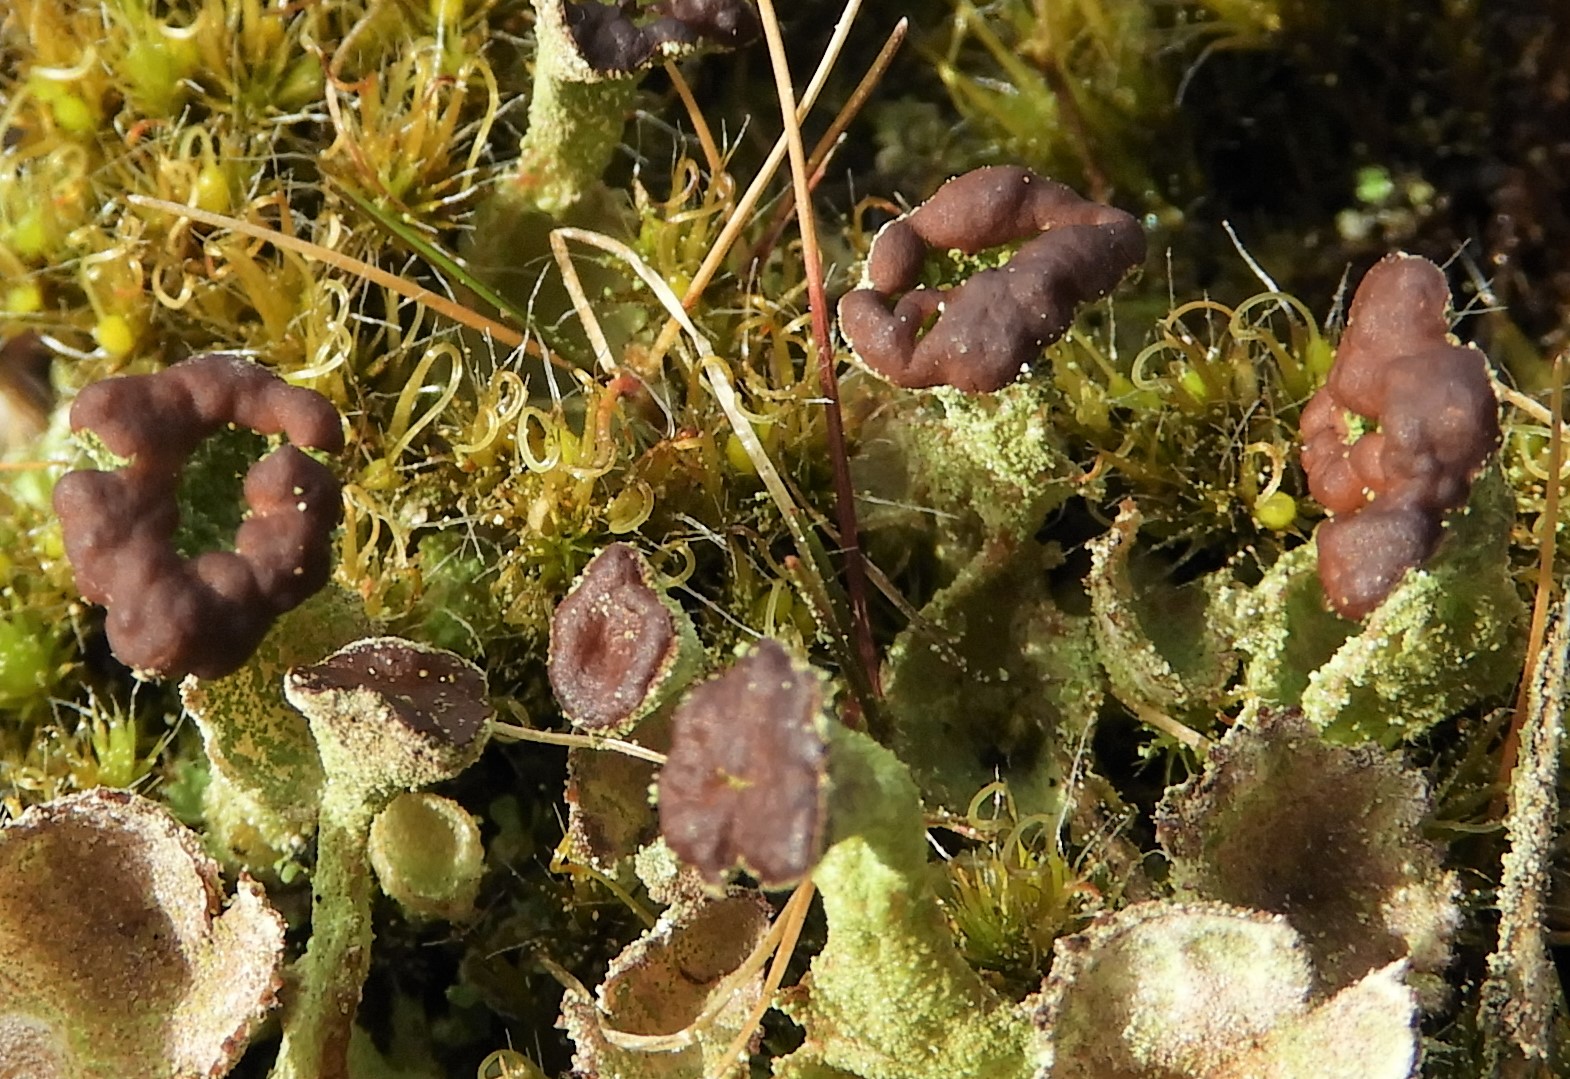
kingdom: Fungi
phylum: Ascomycota
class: Lecanoromycetes
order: Lecanorales
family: Cladoniaceae
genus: Cladonia
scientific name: Cladonia ramulosa
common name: kliddet bægerlav
